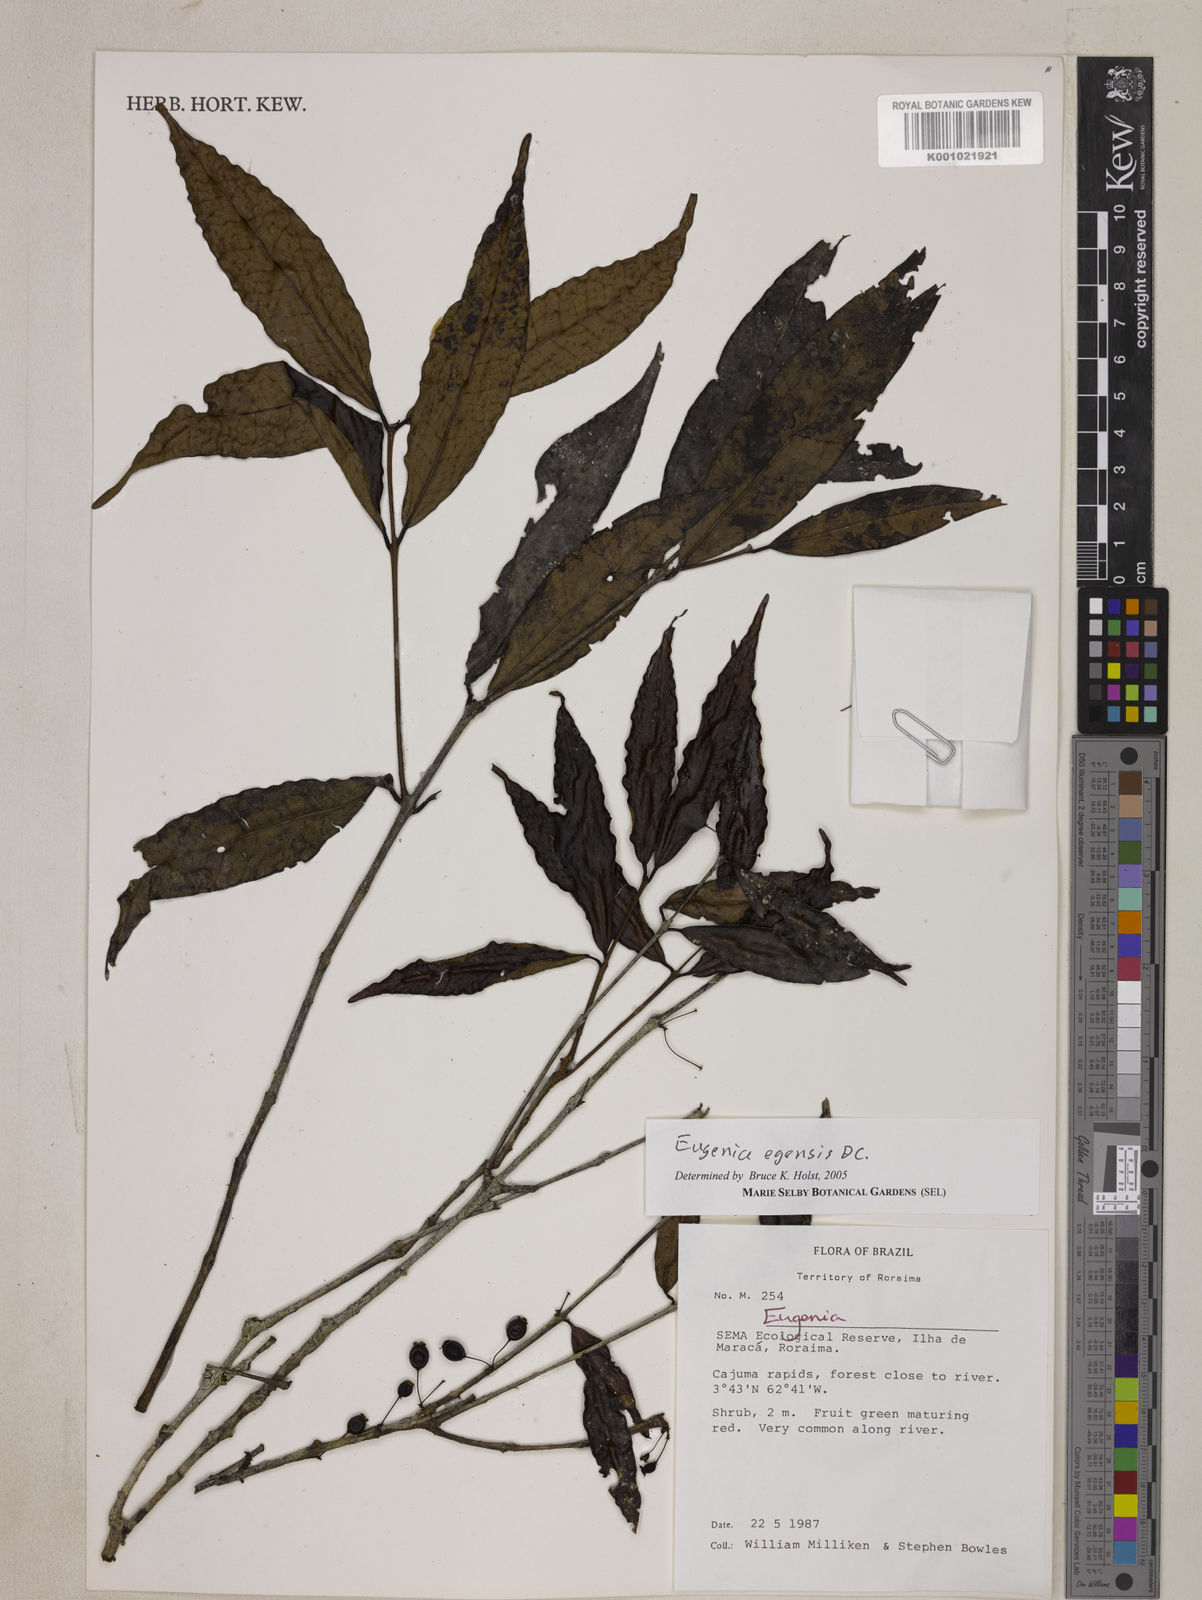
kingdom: Plantae
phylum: Tracheophyta
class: Magnoliopsida
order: Myrtales
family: Myrtaceae
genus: Eugenia
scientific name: Eugenia egensis
